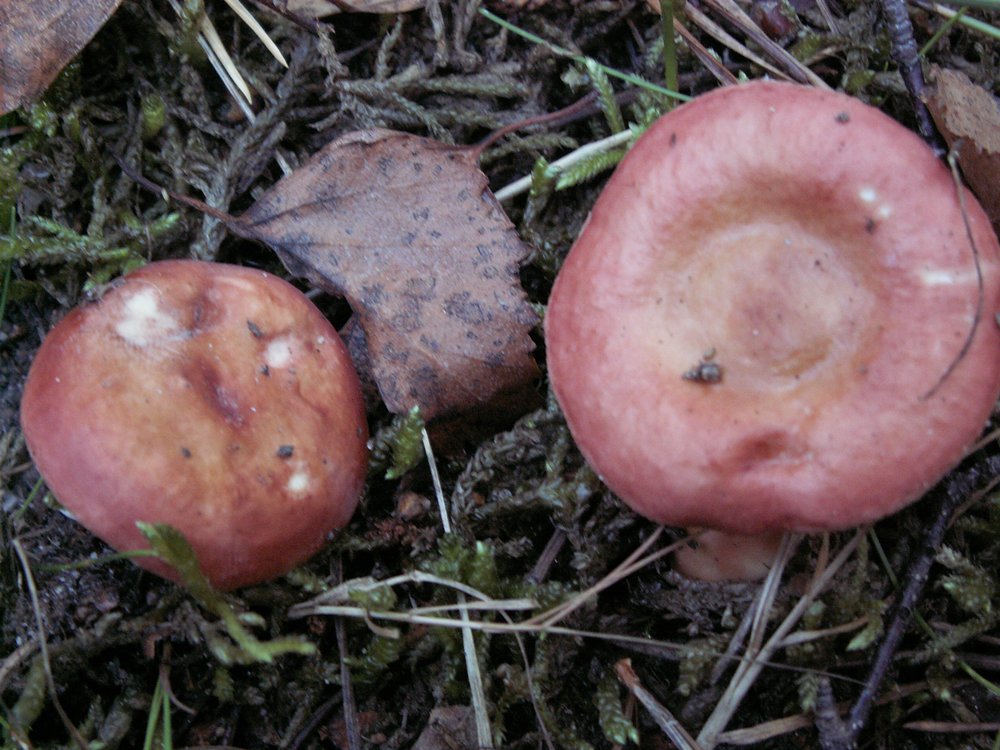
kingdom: Fungi
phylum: Basidiomycota
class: Agaricomycetes
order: Russulales
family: Russulaceae
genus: Russula
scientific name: Russula velenovskyi
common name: orangerød skørhat
